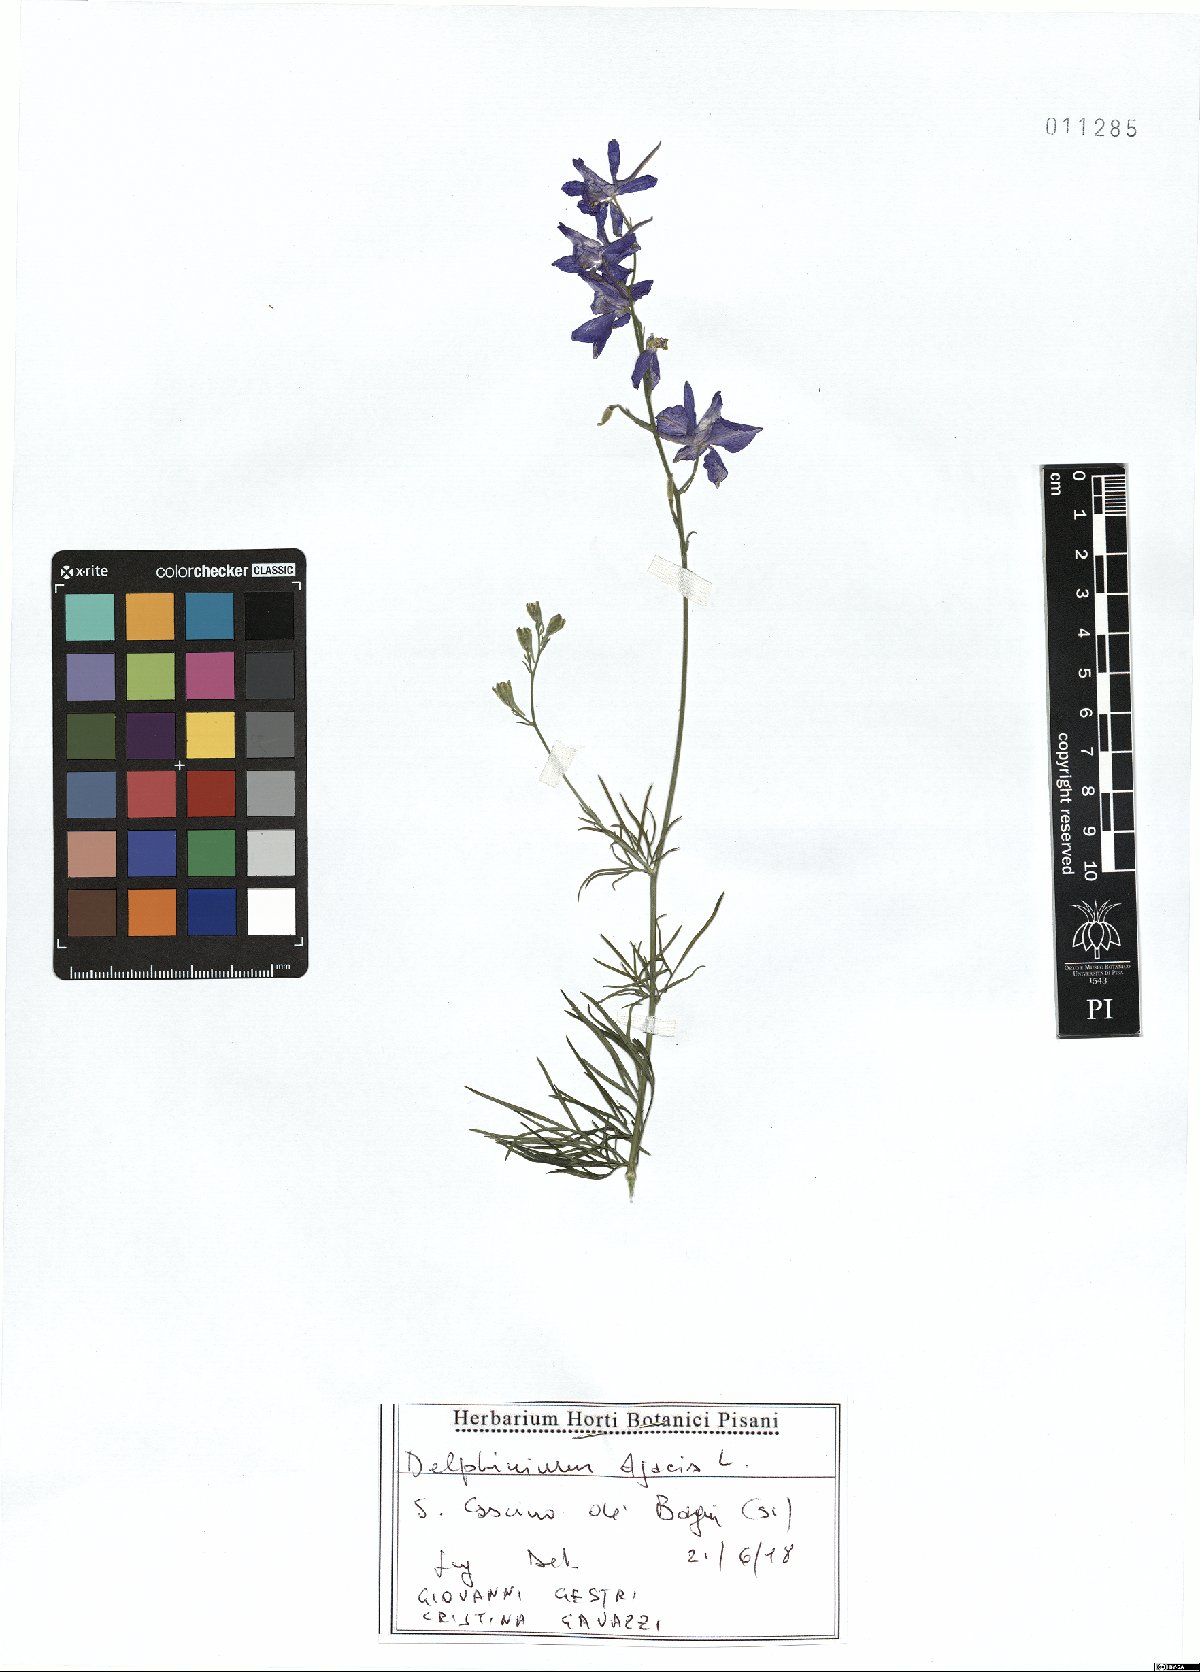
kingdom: Plantae
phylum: Tracheophyta
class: Magnoliopsida
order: Ranunculales
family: Ranunculaceae
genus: Delphinium
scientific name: Delphinium ajacis
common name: Doubtful knight's-spur
